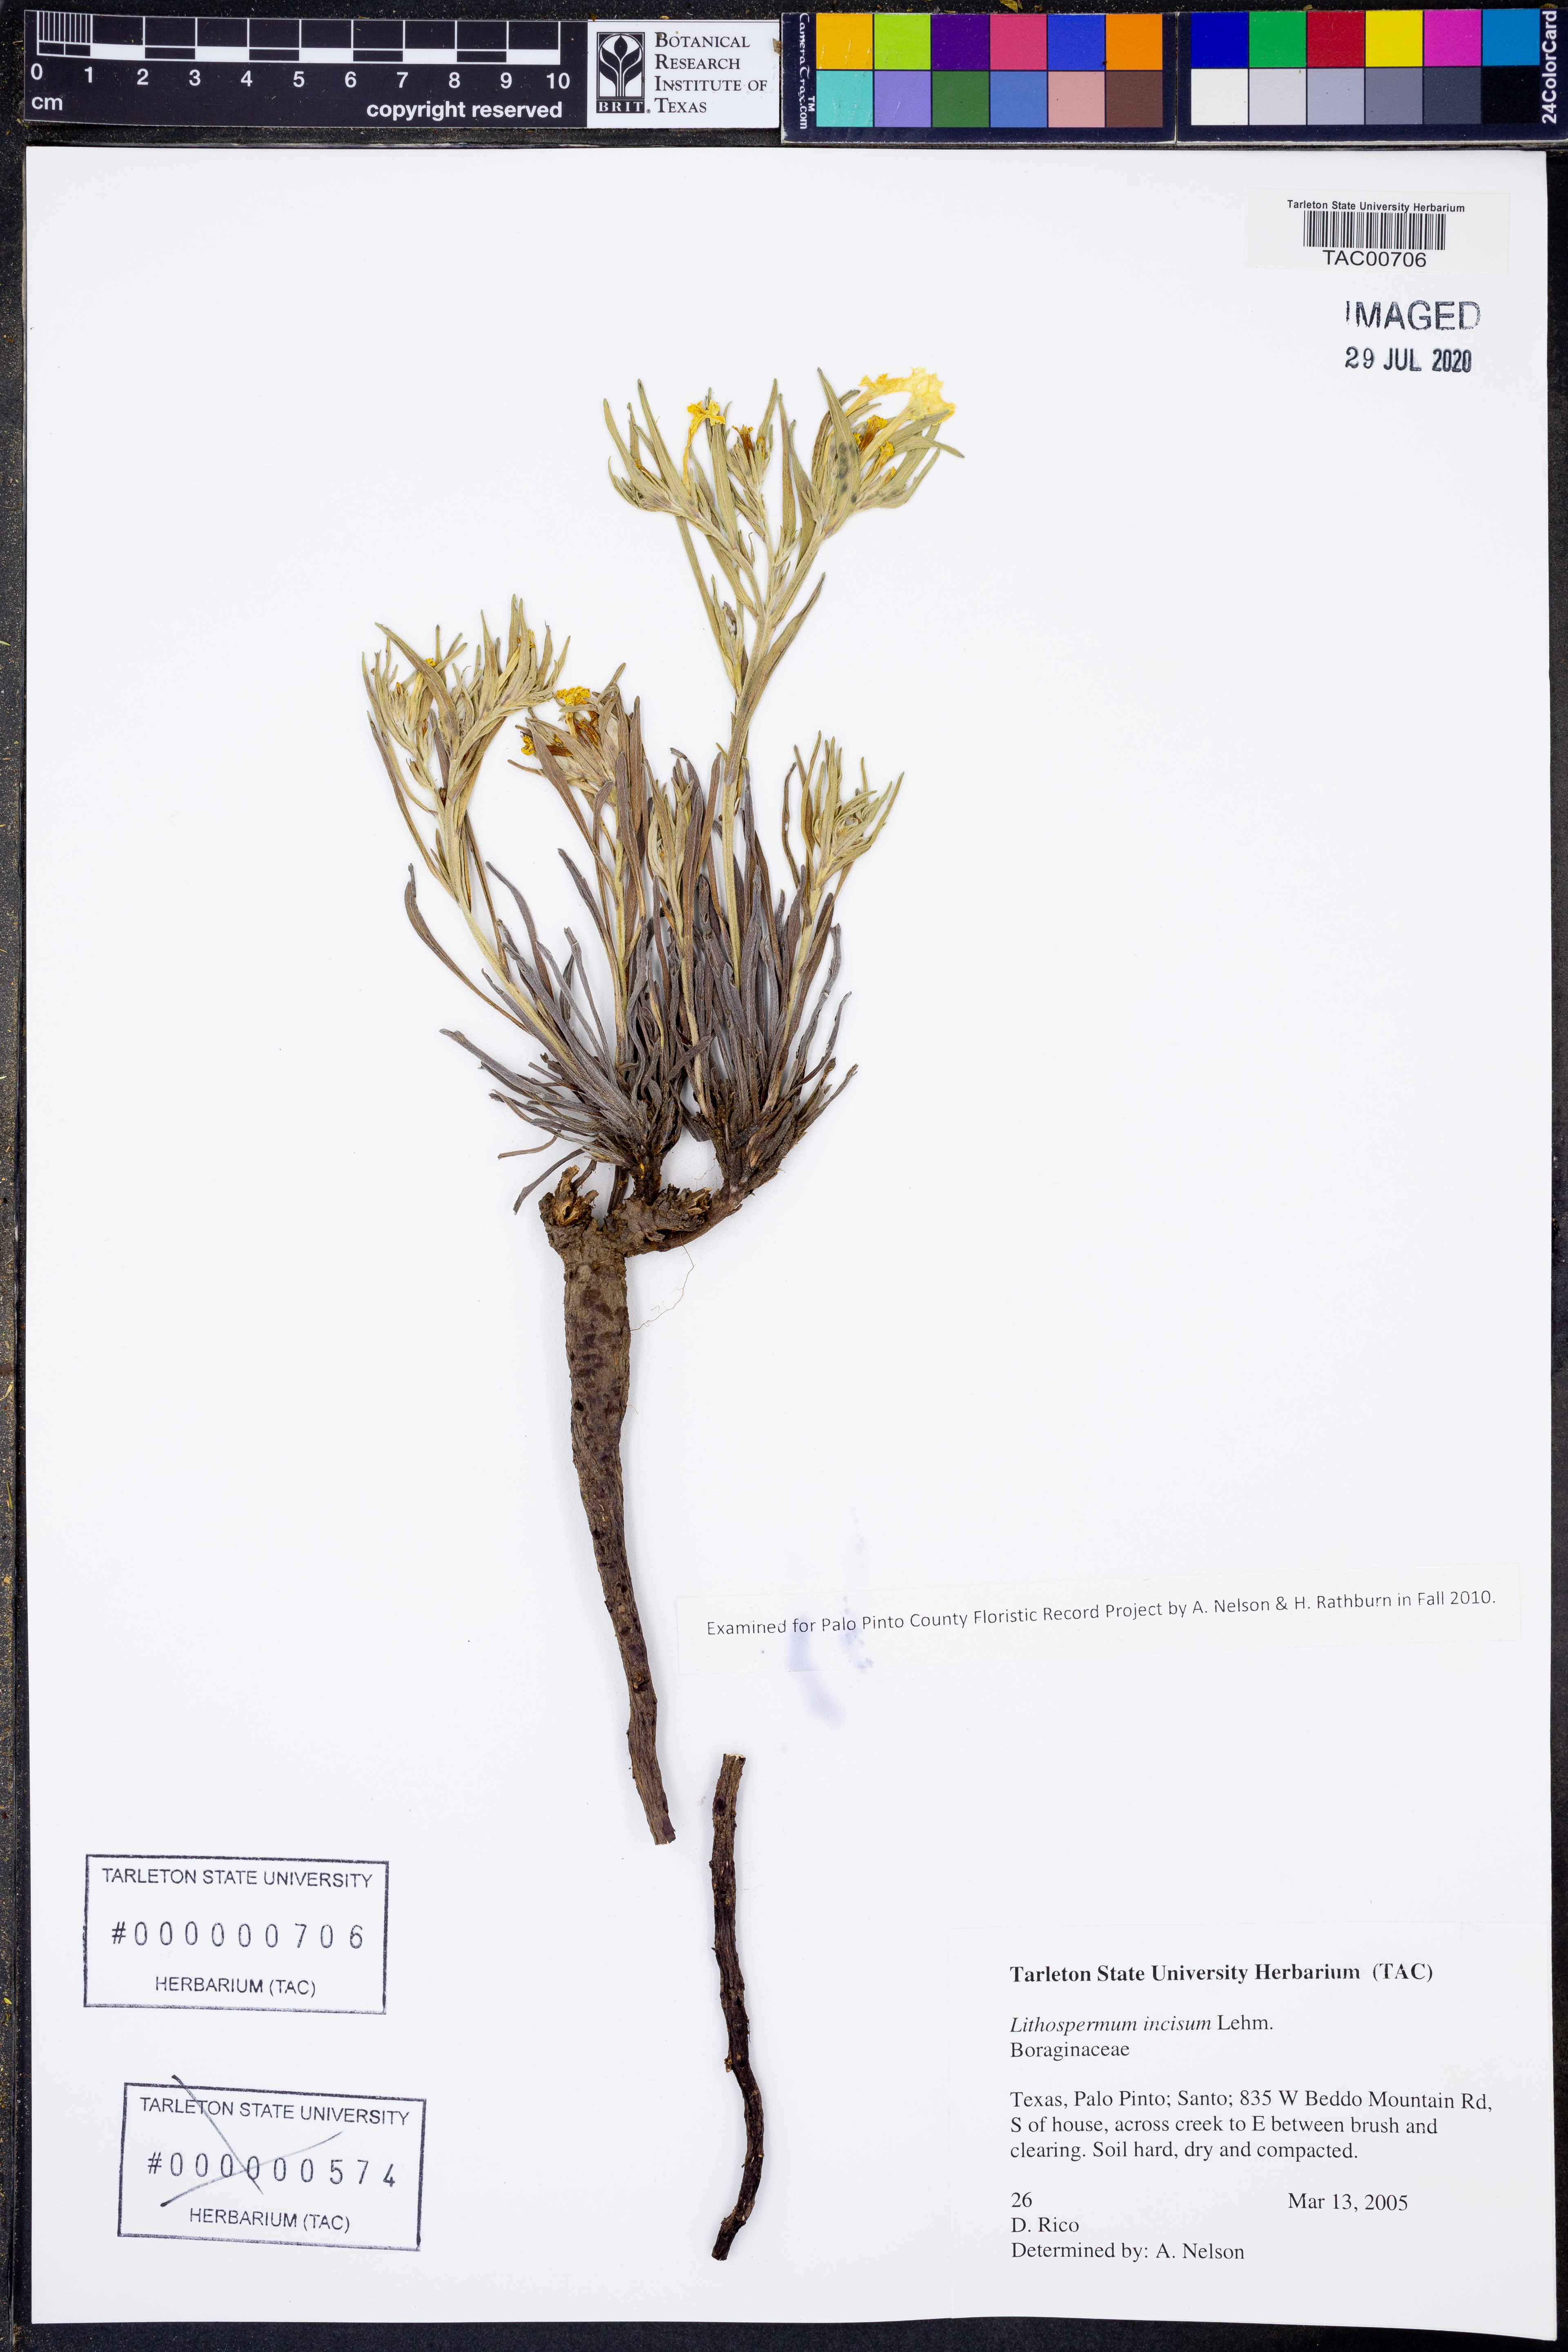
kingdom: Plantae
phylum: Tracheophyta
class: Magnoliopsida
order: Boraginales
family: Boraginaceae
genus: Lithospermum
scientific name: Lithospermum incisum
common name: Fringed gromwell
